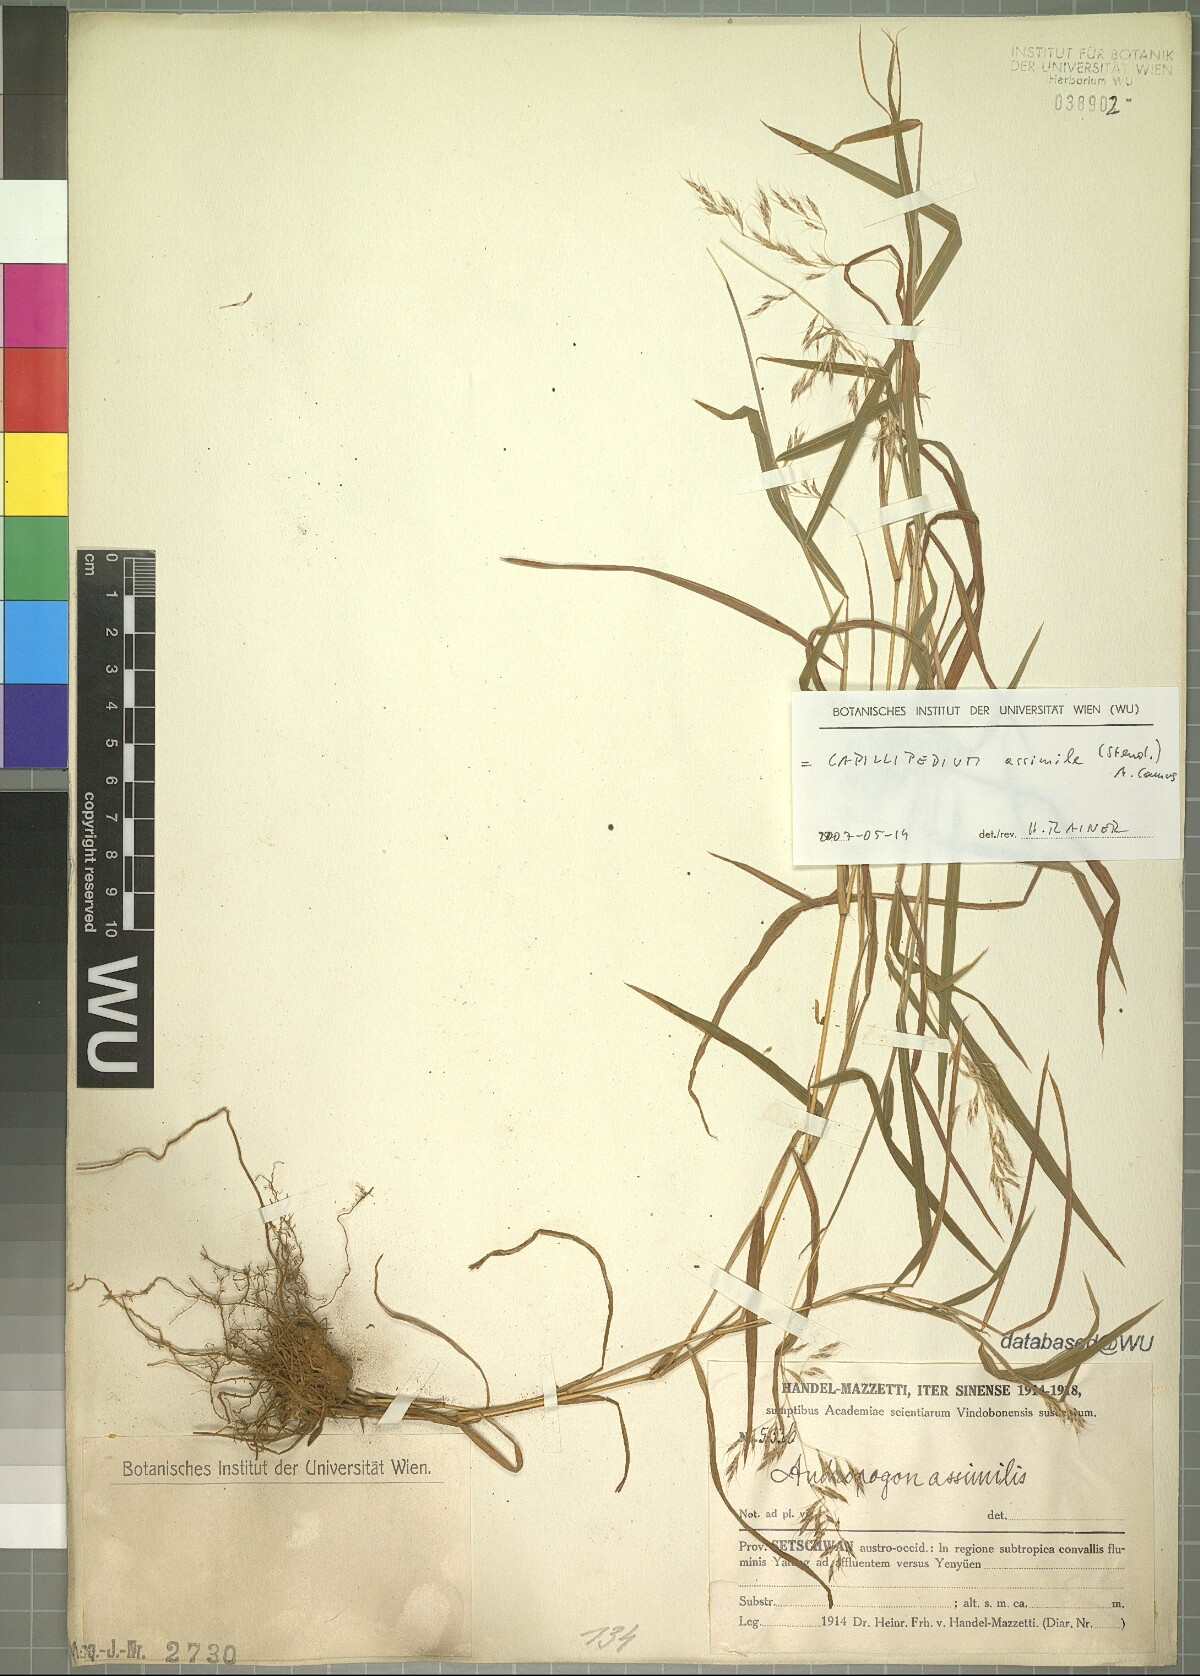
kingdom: Plantae
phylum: Tracheophyta
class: Liliopsida
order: Poales
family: Poaceae
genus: Capillipedium
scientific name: Capillipedium assimile
